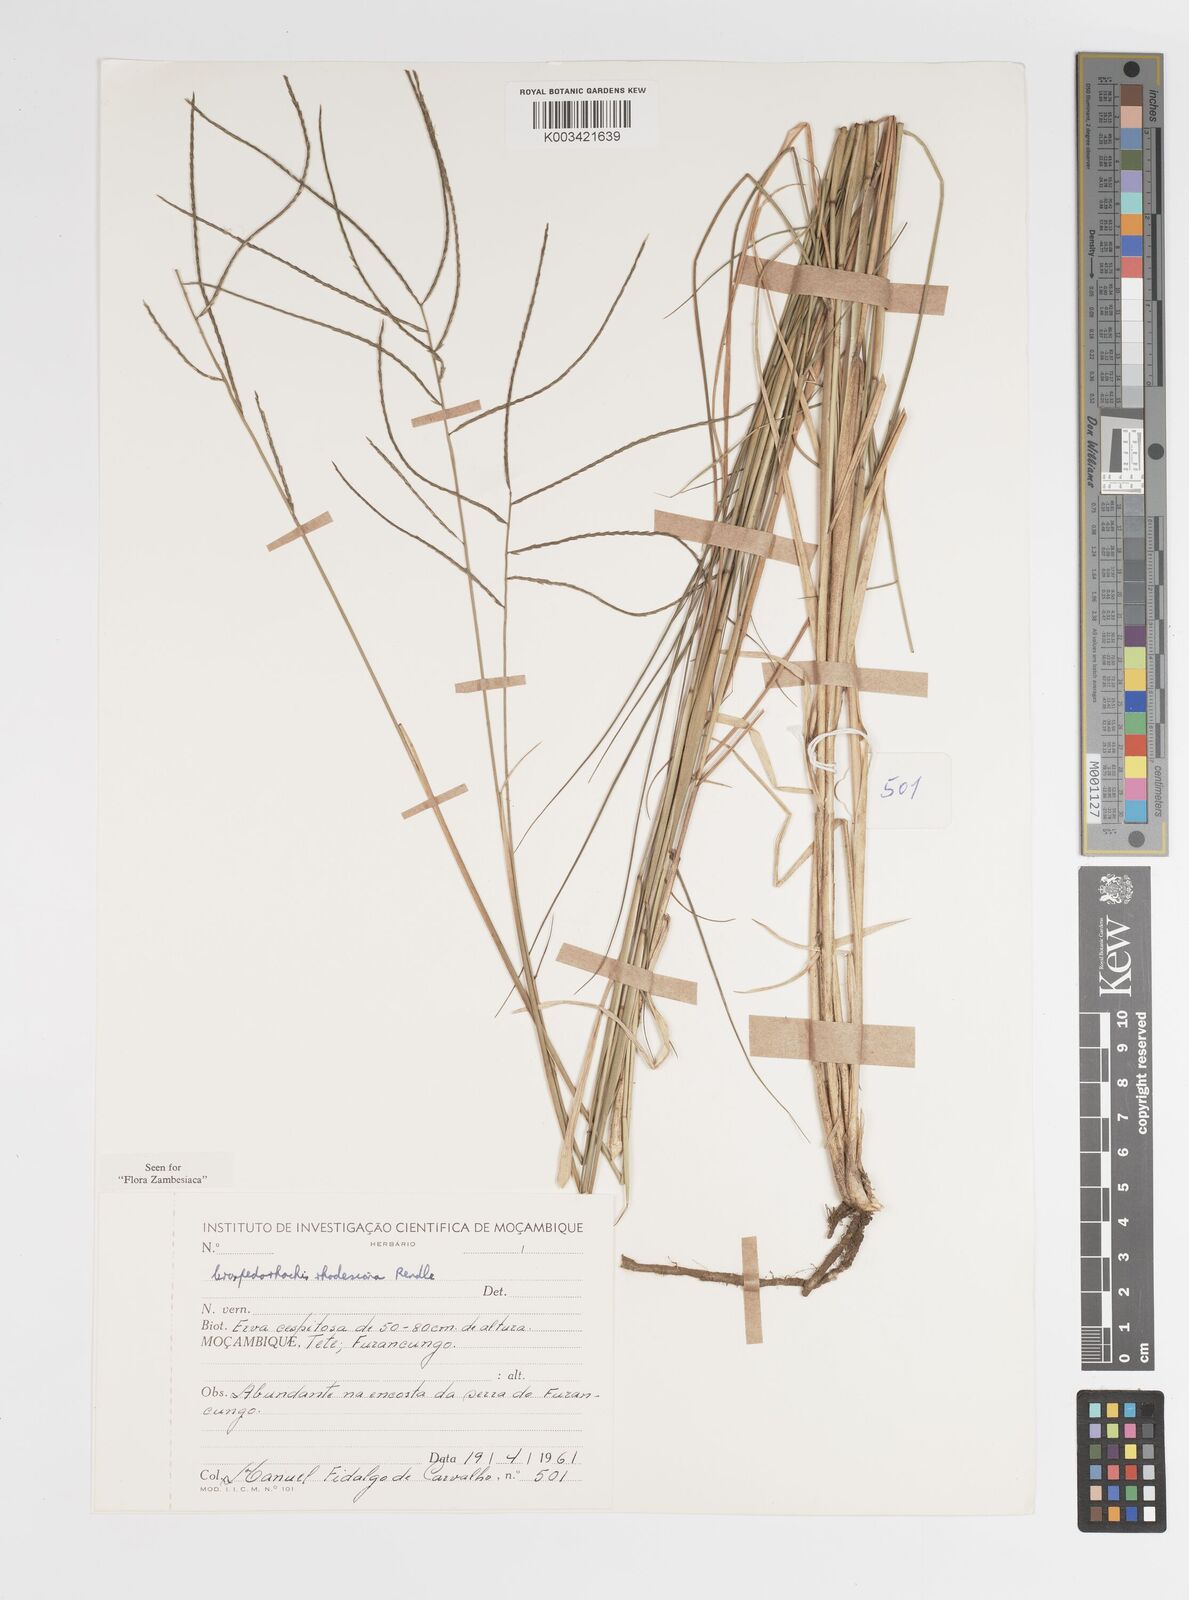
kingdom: Plantae
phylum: Tracheophyta
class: Liliopsida
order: Poales
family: Poaceae
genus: Craspedorhachis
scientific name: Craspedorhachis rhodesiana
